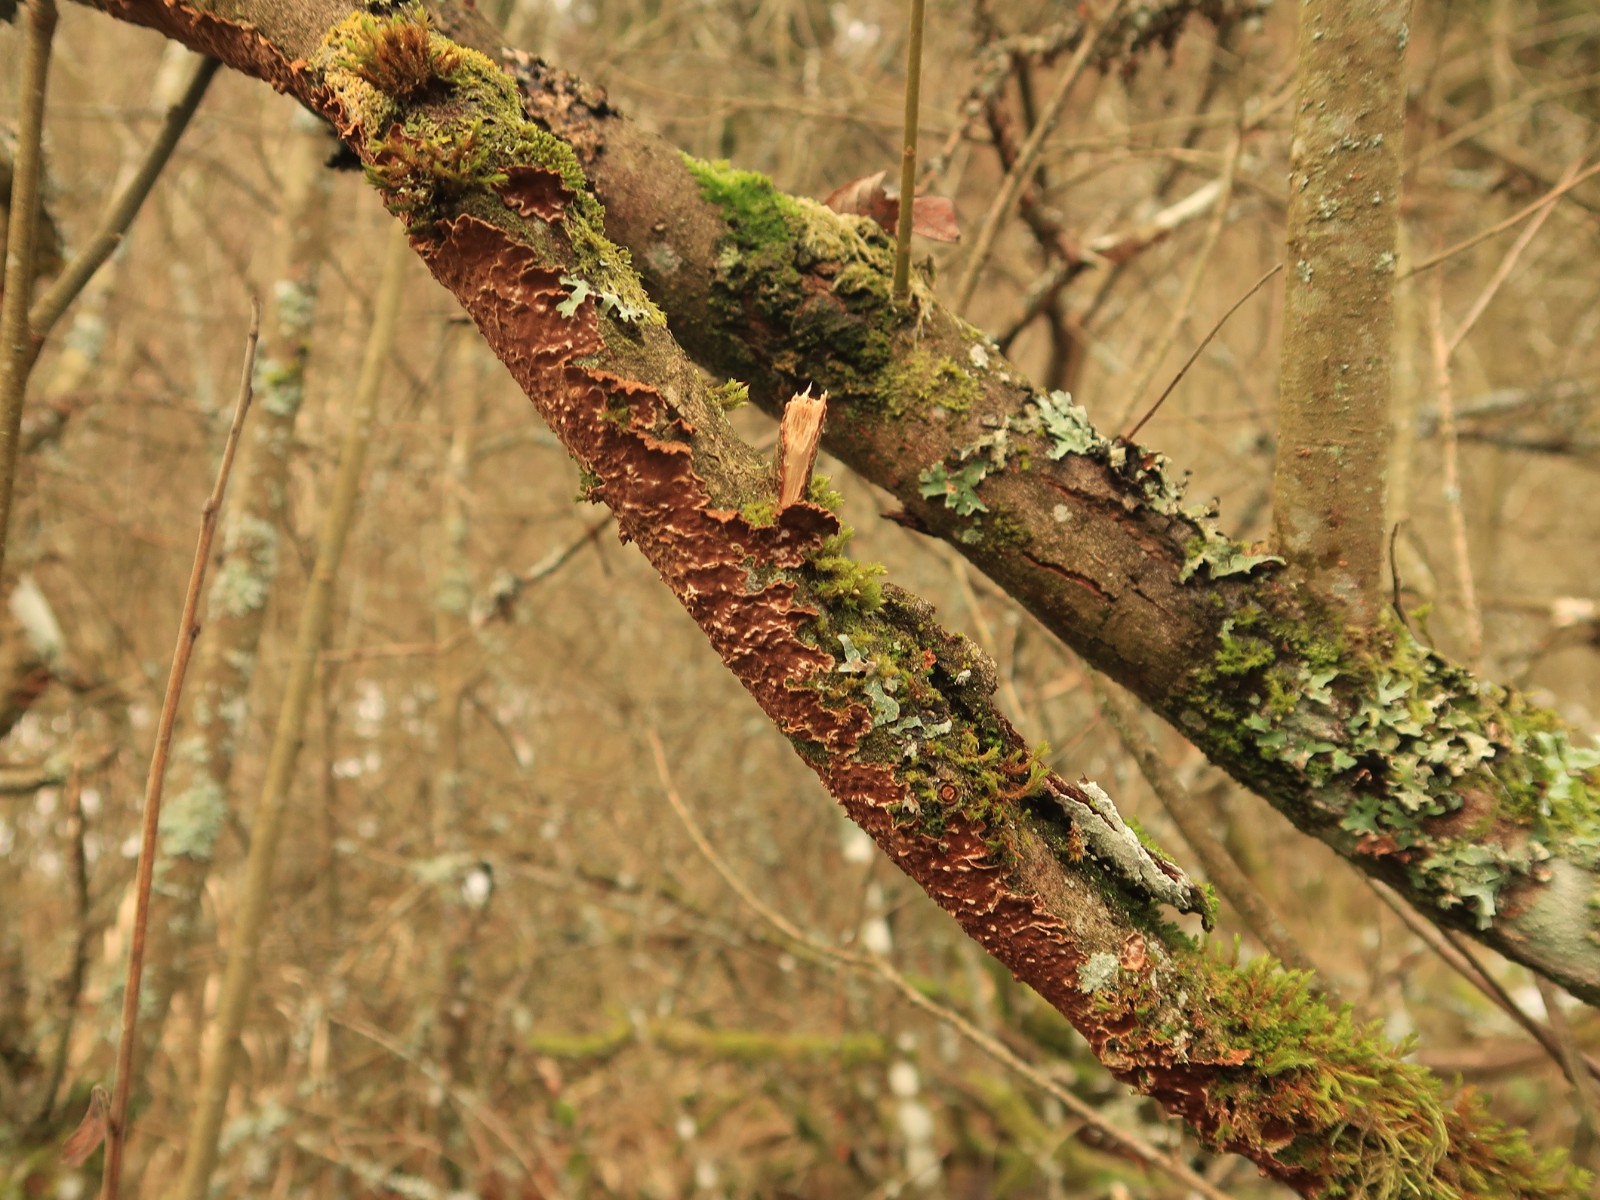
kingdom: Fungi
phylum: Basidiomycota
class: Agaricomycetes
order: Hymenochaetales
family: Hymenochaetaceae
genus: Hydnoporia
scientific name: Hydnoporia tabacina
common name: tobaksbrun ruslædersvamp
